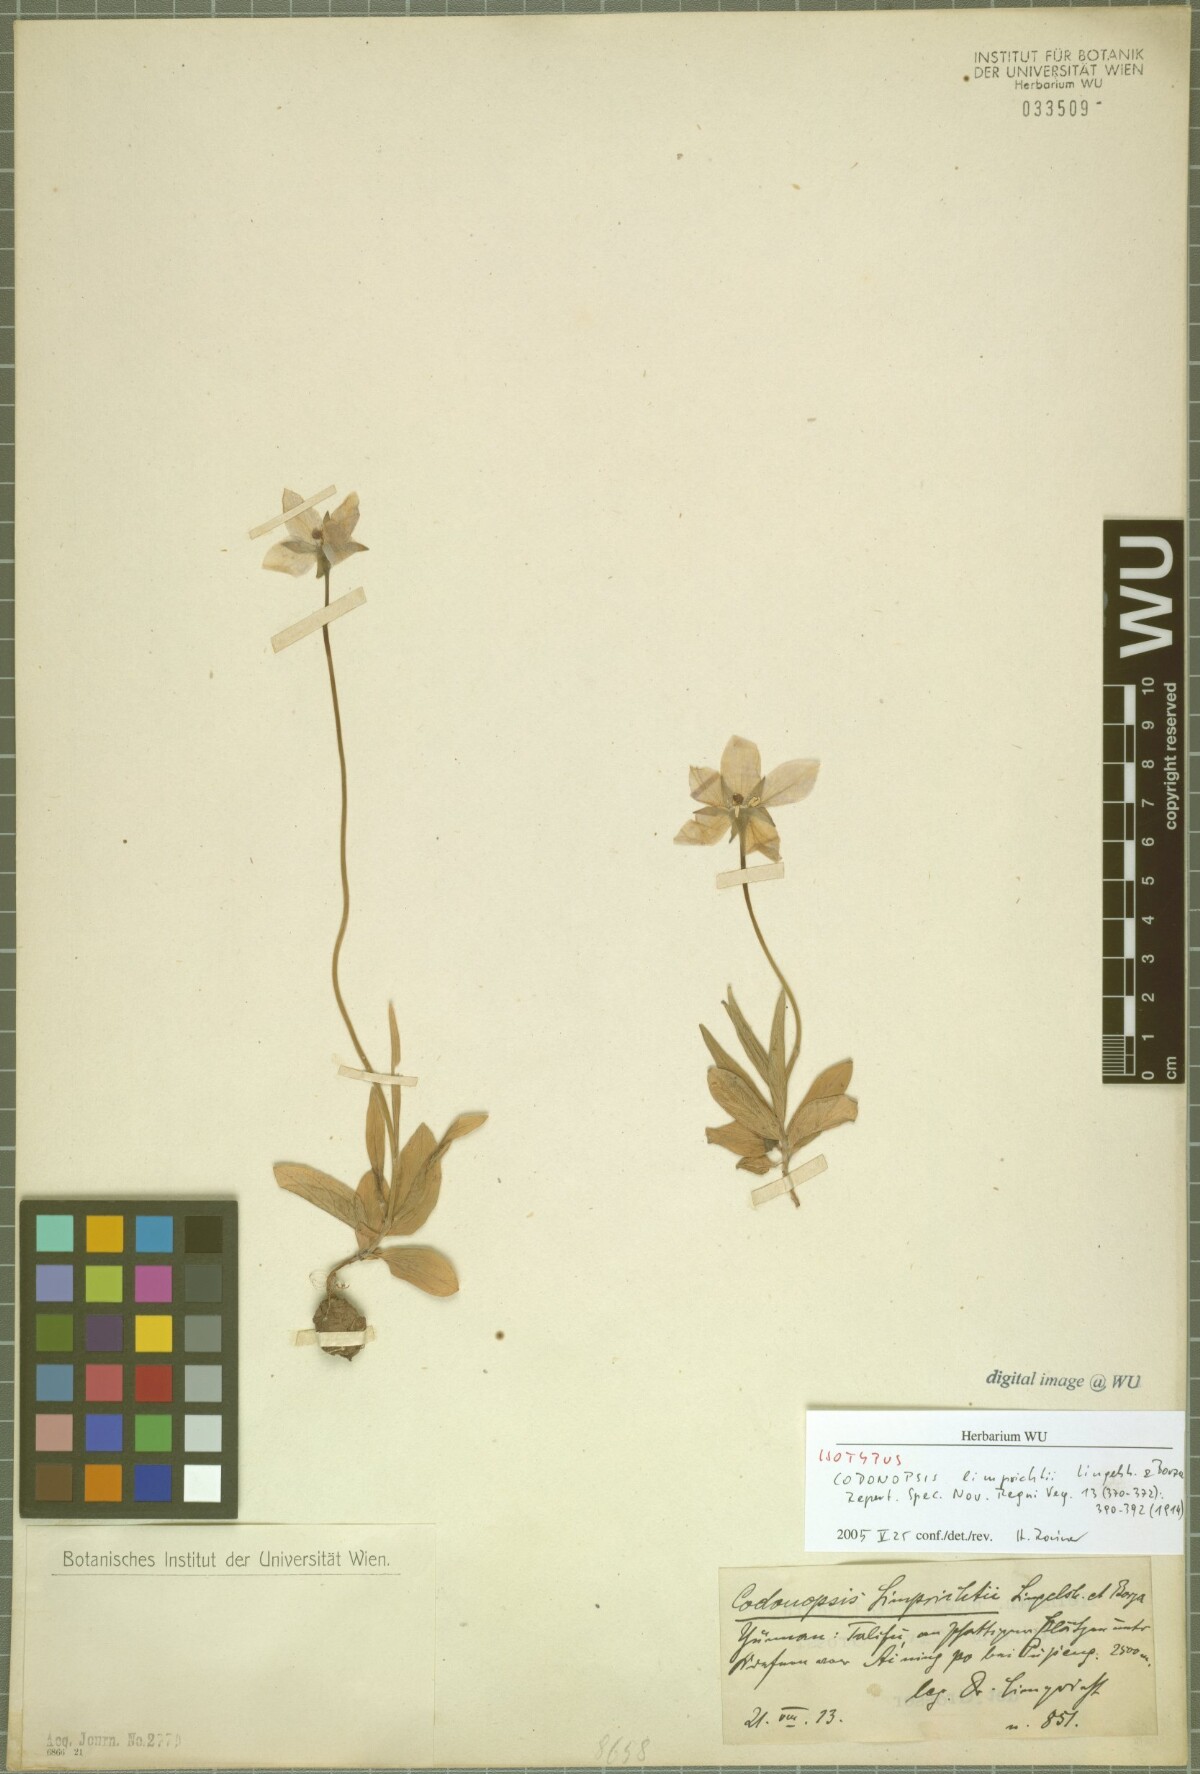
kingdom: Plantae
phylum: Tracheophyta
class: Magnoliopsida
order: Asterales
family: Campanulaceae
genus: Pseudocodon
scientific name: Pseudocodon convolvulaceus
